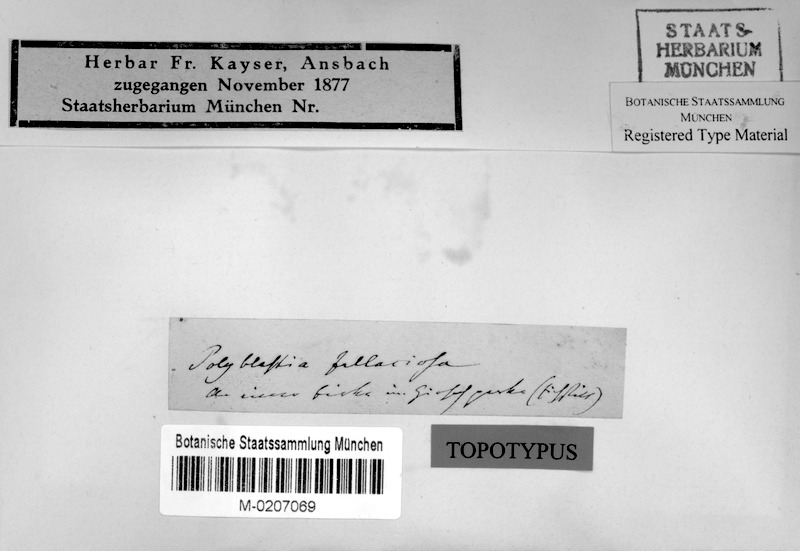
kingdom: Fungi
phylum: Ascomycota
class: Dothideomycetes
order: Trypetheliales
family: Trypetheliaceae
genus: Arthopyrenia
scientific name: Arthopyrenia fallaciosa
